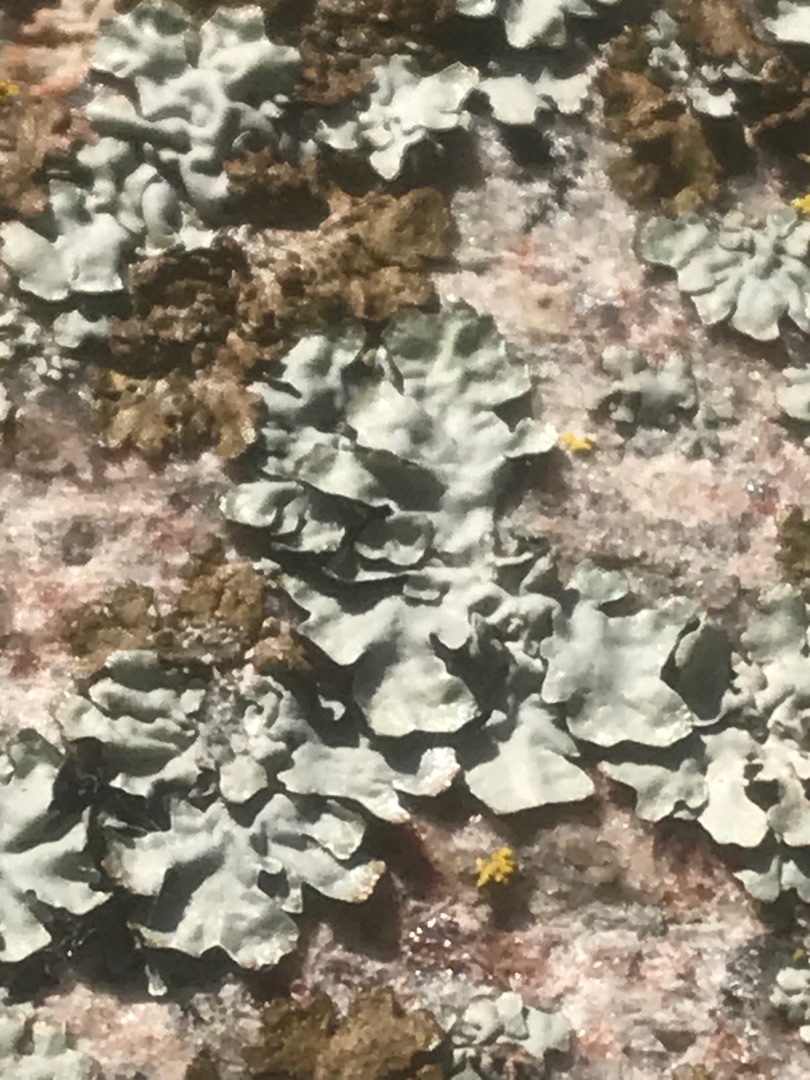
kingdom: Fungi
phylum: Ascomycota
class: Lecanoromycetes
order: Lecanorales
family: Parmeliaceae
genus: Parmelia
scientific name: Parmelia sulcata
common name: Rynket skållav
